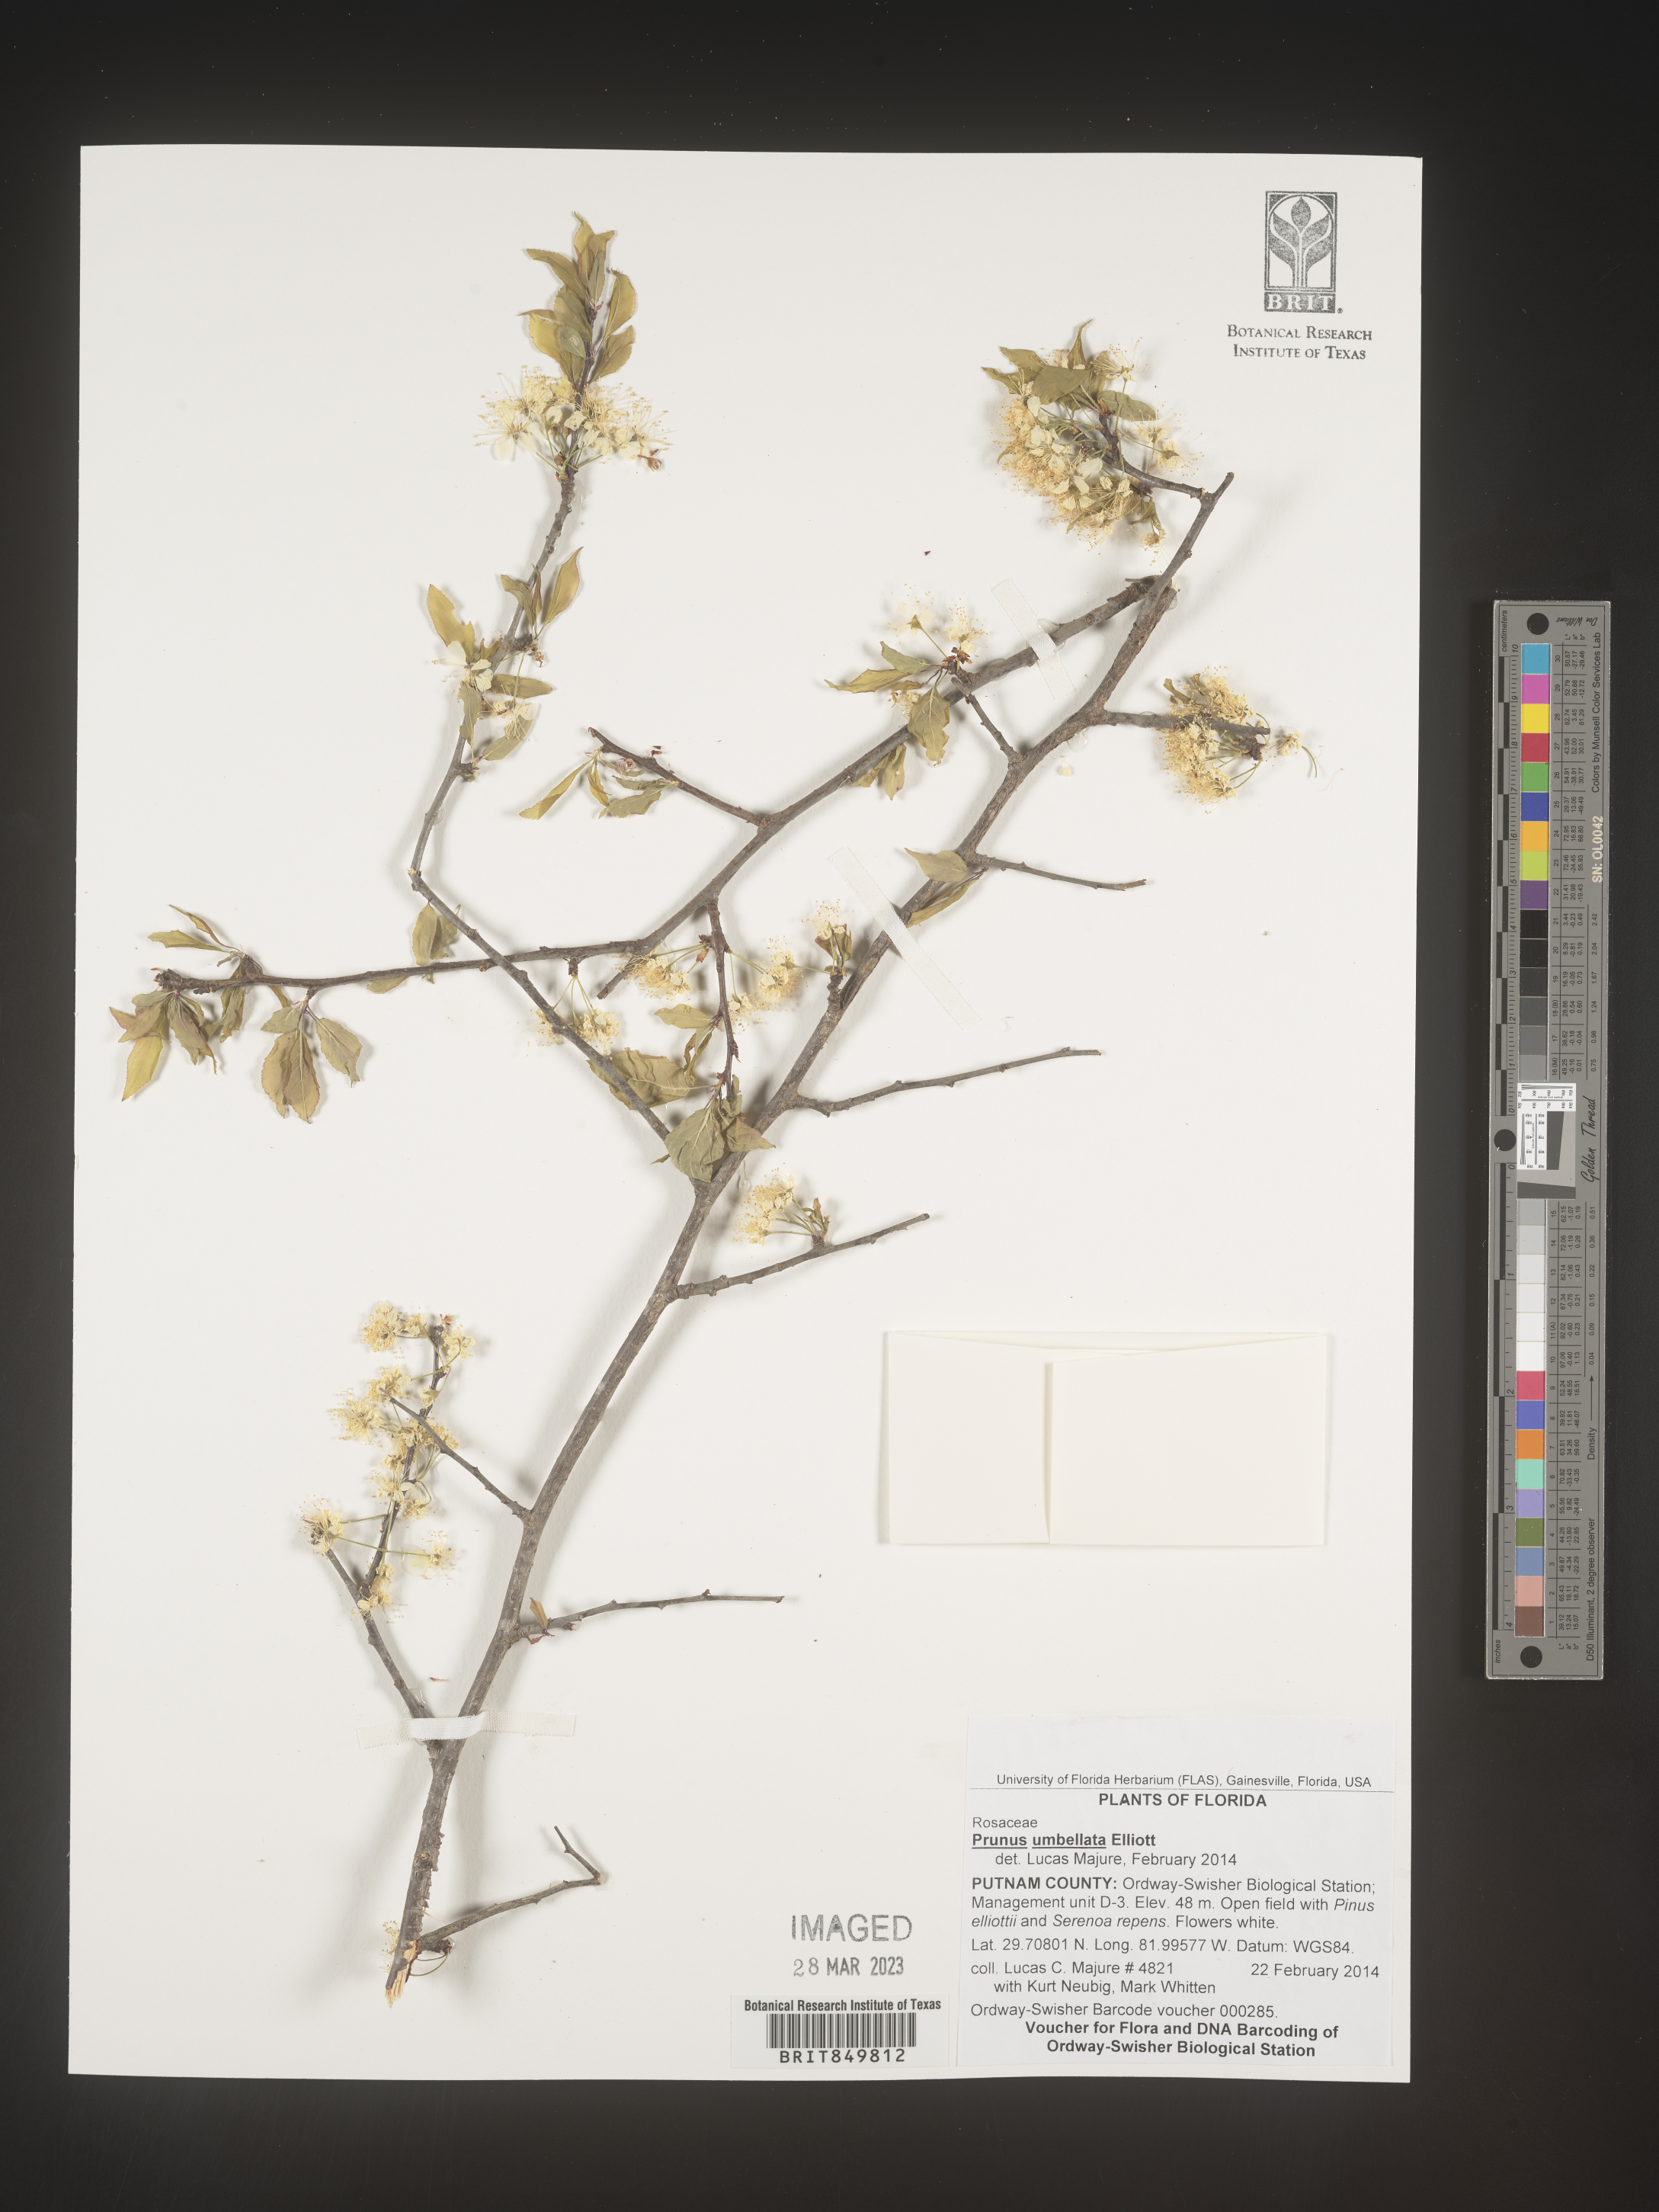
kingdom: Plantae
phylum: Tracheophyta
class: Magnoliopsida
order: Rosales
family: Rosaceae
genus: Prunus
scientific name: Prunus umbellata
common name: Allegheny plum
